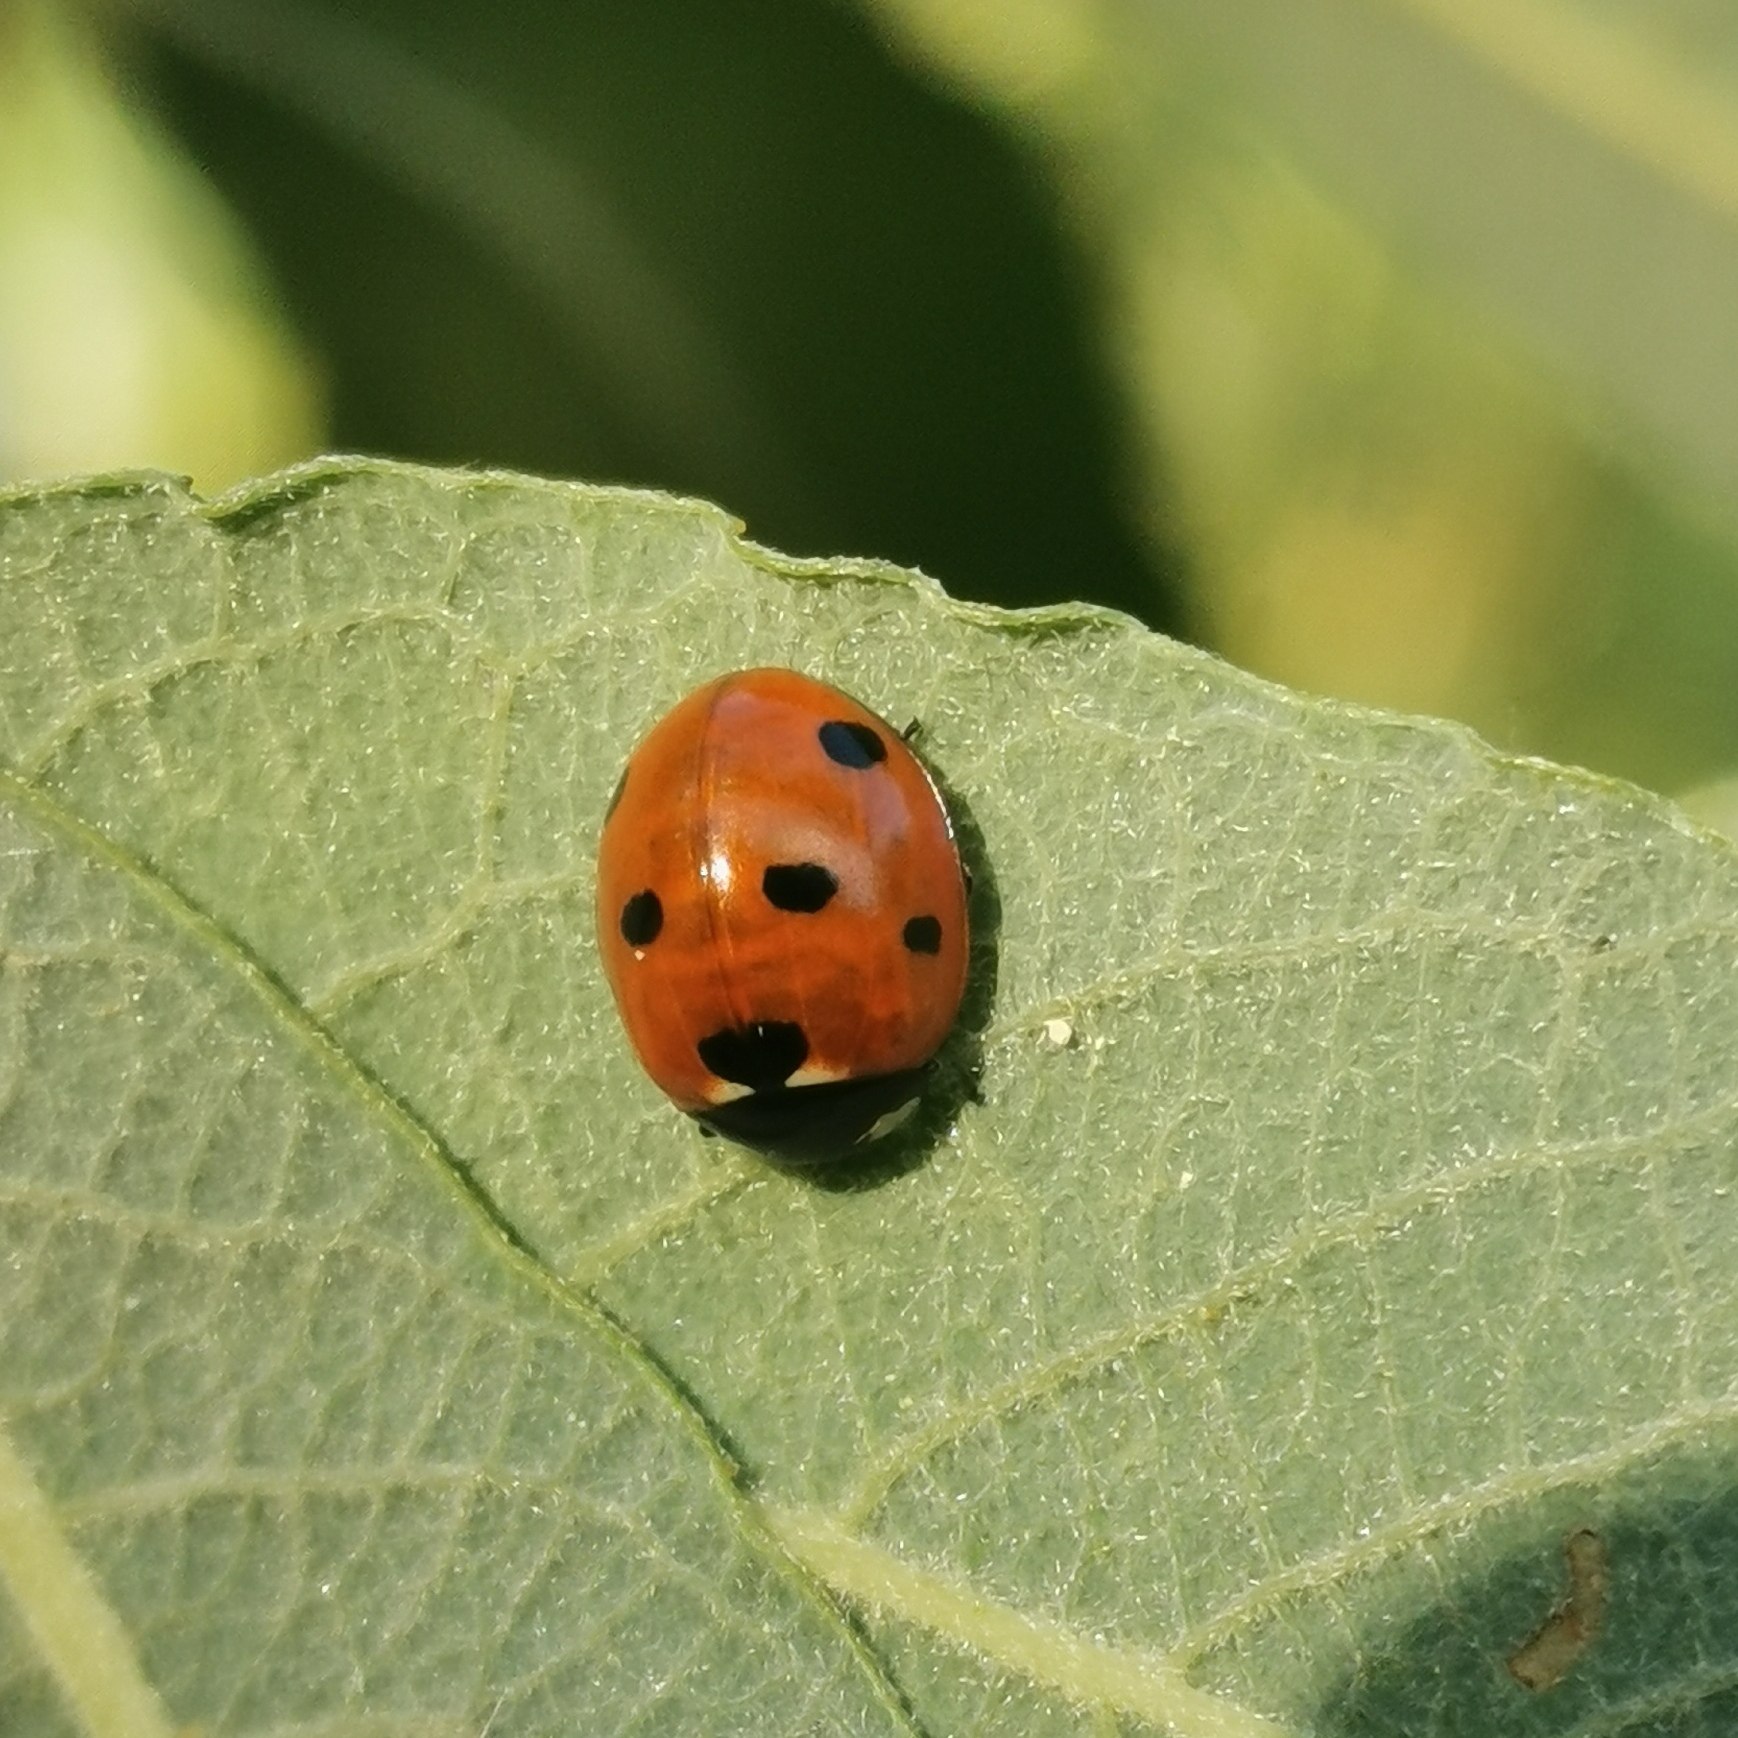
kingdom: Animalia
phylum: Arthropoda
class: Insecta
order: Coleoptera
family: Coccinellidae
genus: Coccinella
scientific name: Coccinella septempunctata
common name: Syvplettet mariehøne
